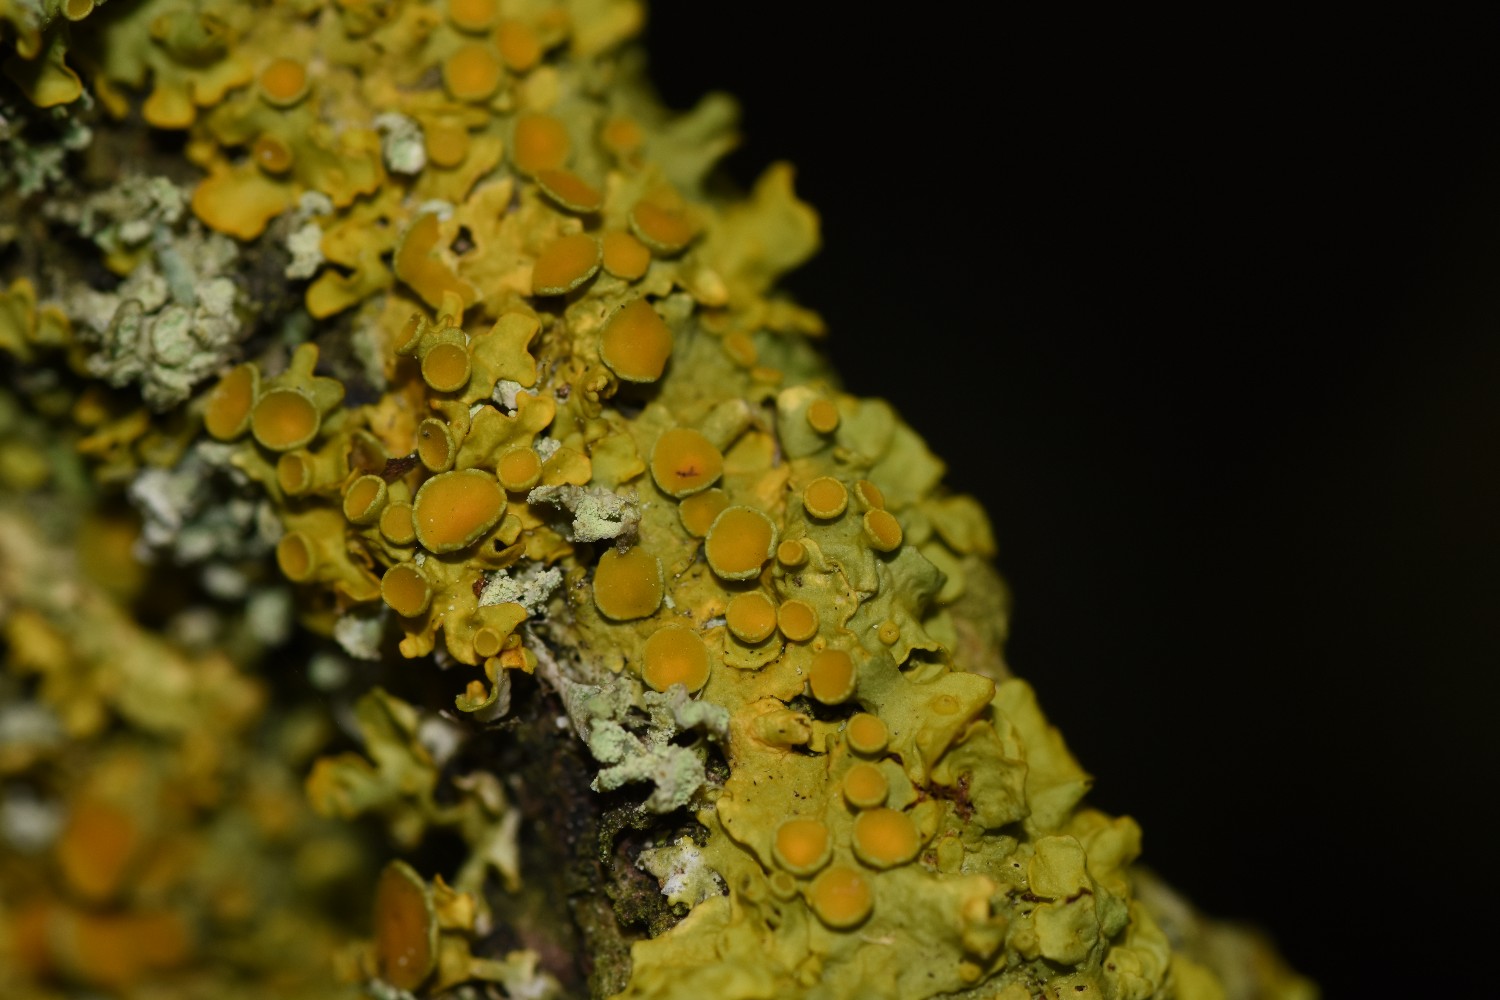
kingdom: Fungi
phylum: Ascomycota
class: Lecanoromycetes
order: Teloschistales
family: Teloschistaceae
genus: Xanthoria
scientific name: Xanthoria parietina
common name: almindelig væggelav
